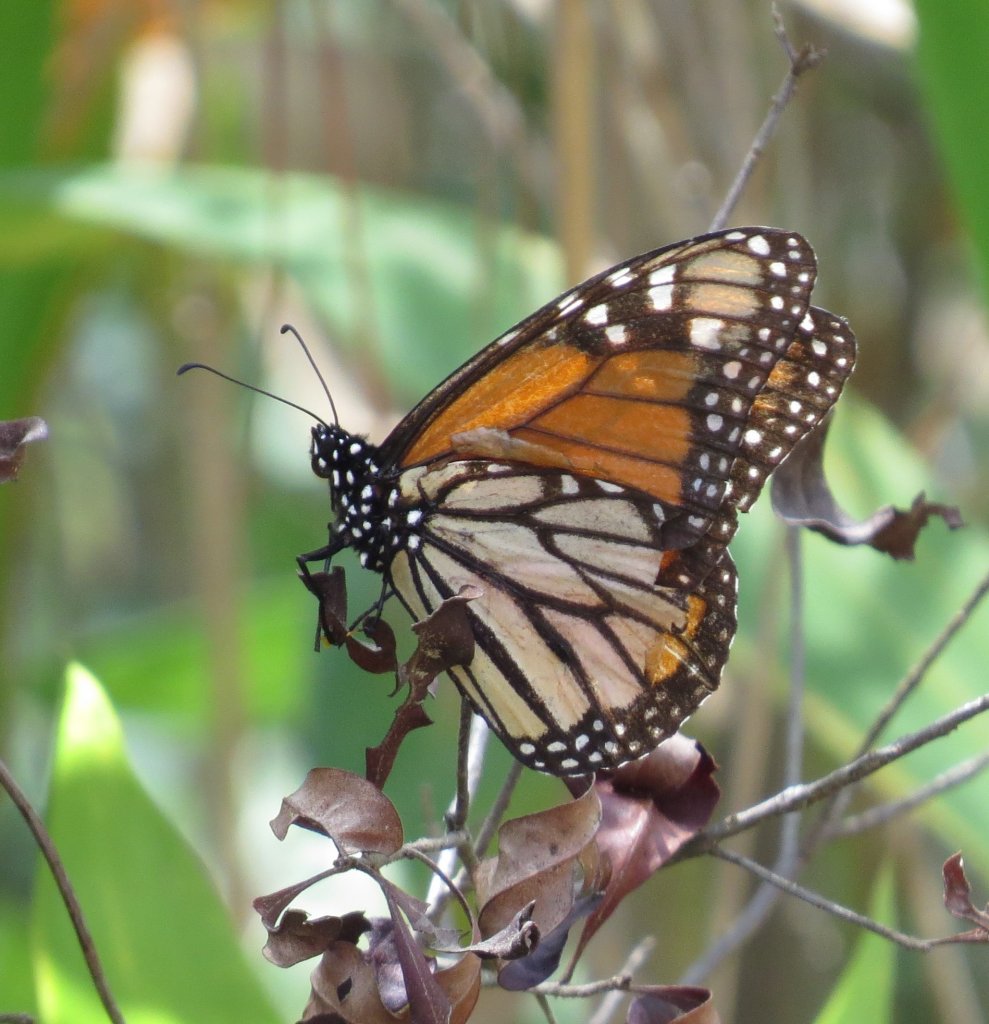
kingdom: Animalia
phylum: Arthropoda
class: Insecta
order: Lepidoptera
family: Nymphalidae
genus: Danaus
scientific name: Danaus plexippus
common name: Monarch
